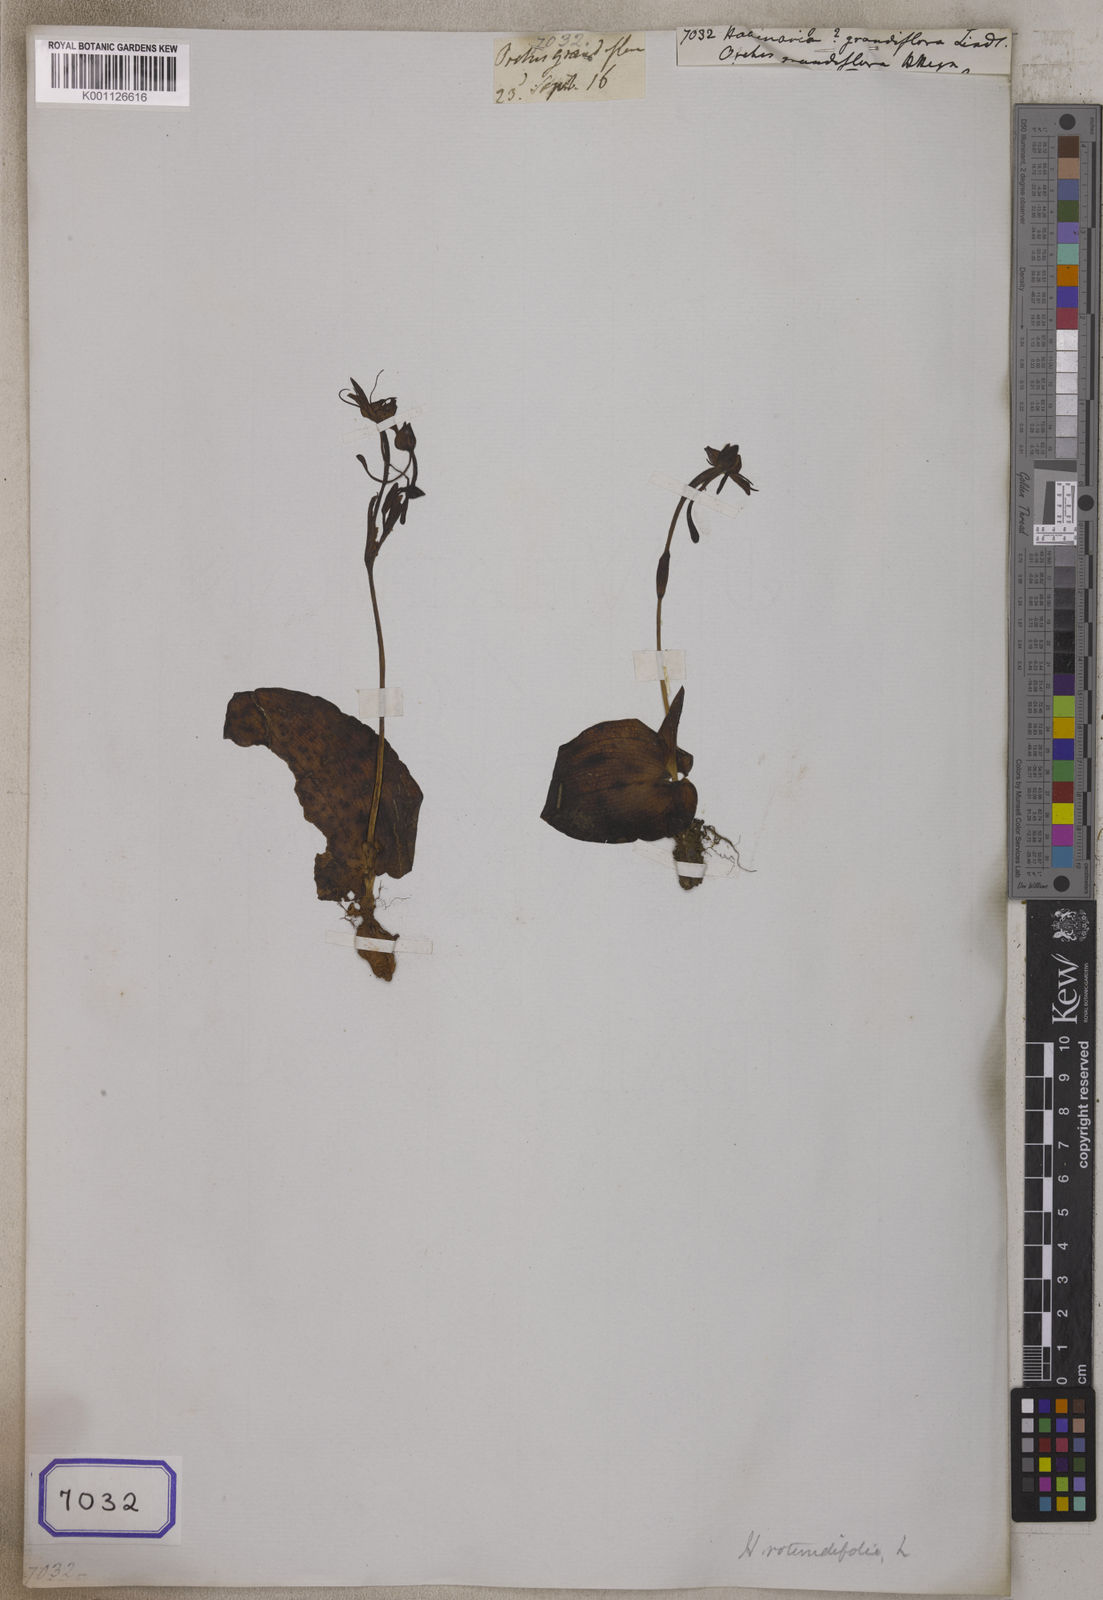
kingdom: Plantae
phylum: Tracheophyta
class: Liliopsida
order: Asparagales
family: Orchidaceae
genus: Habenaria
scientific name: Habenaria
